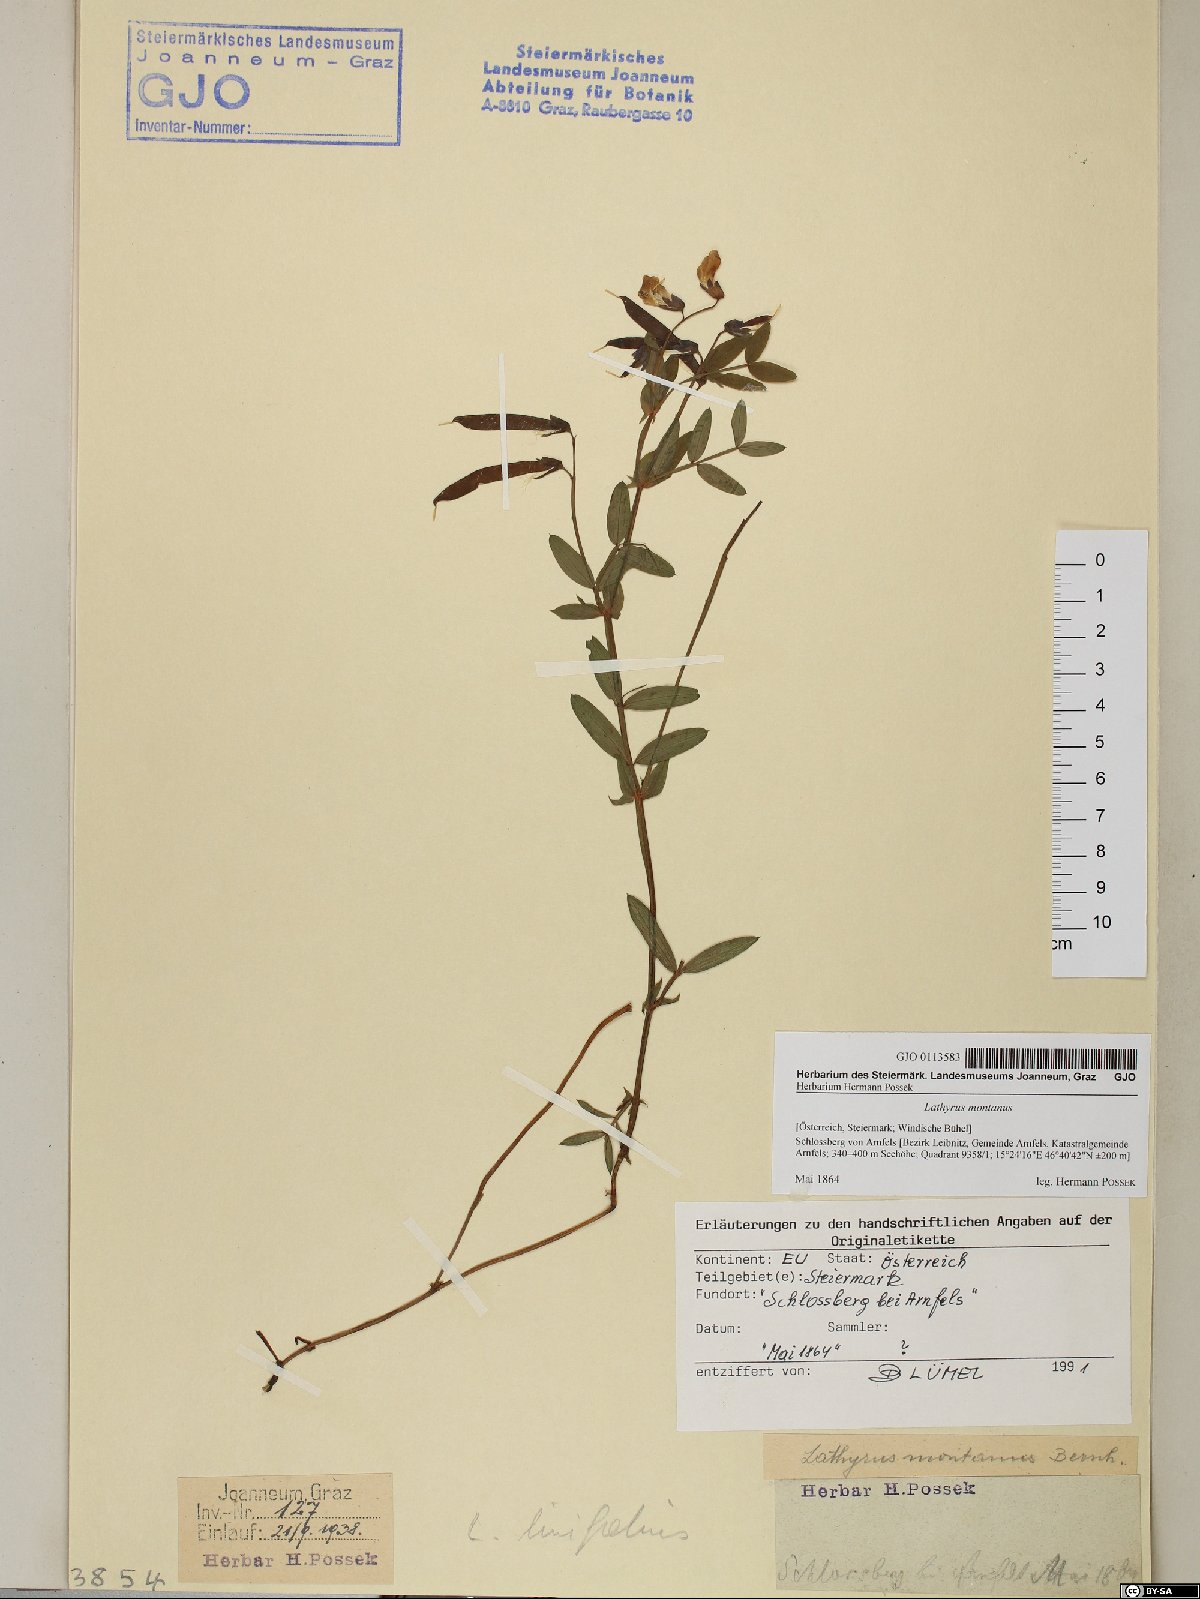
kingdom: Plantae
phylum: Tracheophyta
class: Magnoliopsida
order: Fabales
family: Fabaceae
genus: Lathyrus
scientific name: Lathyrus linifolius
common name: Bitter-vetch
